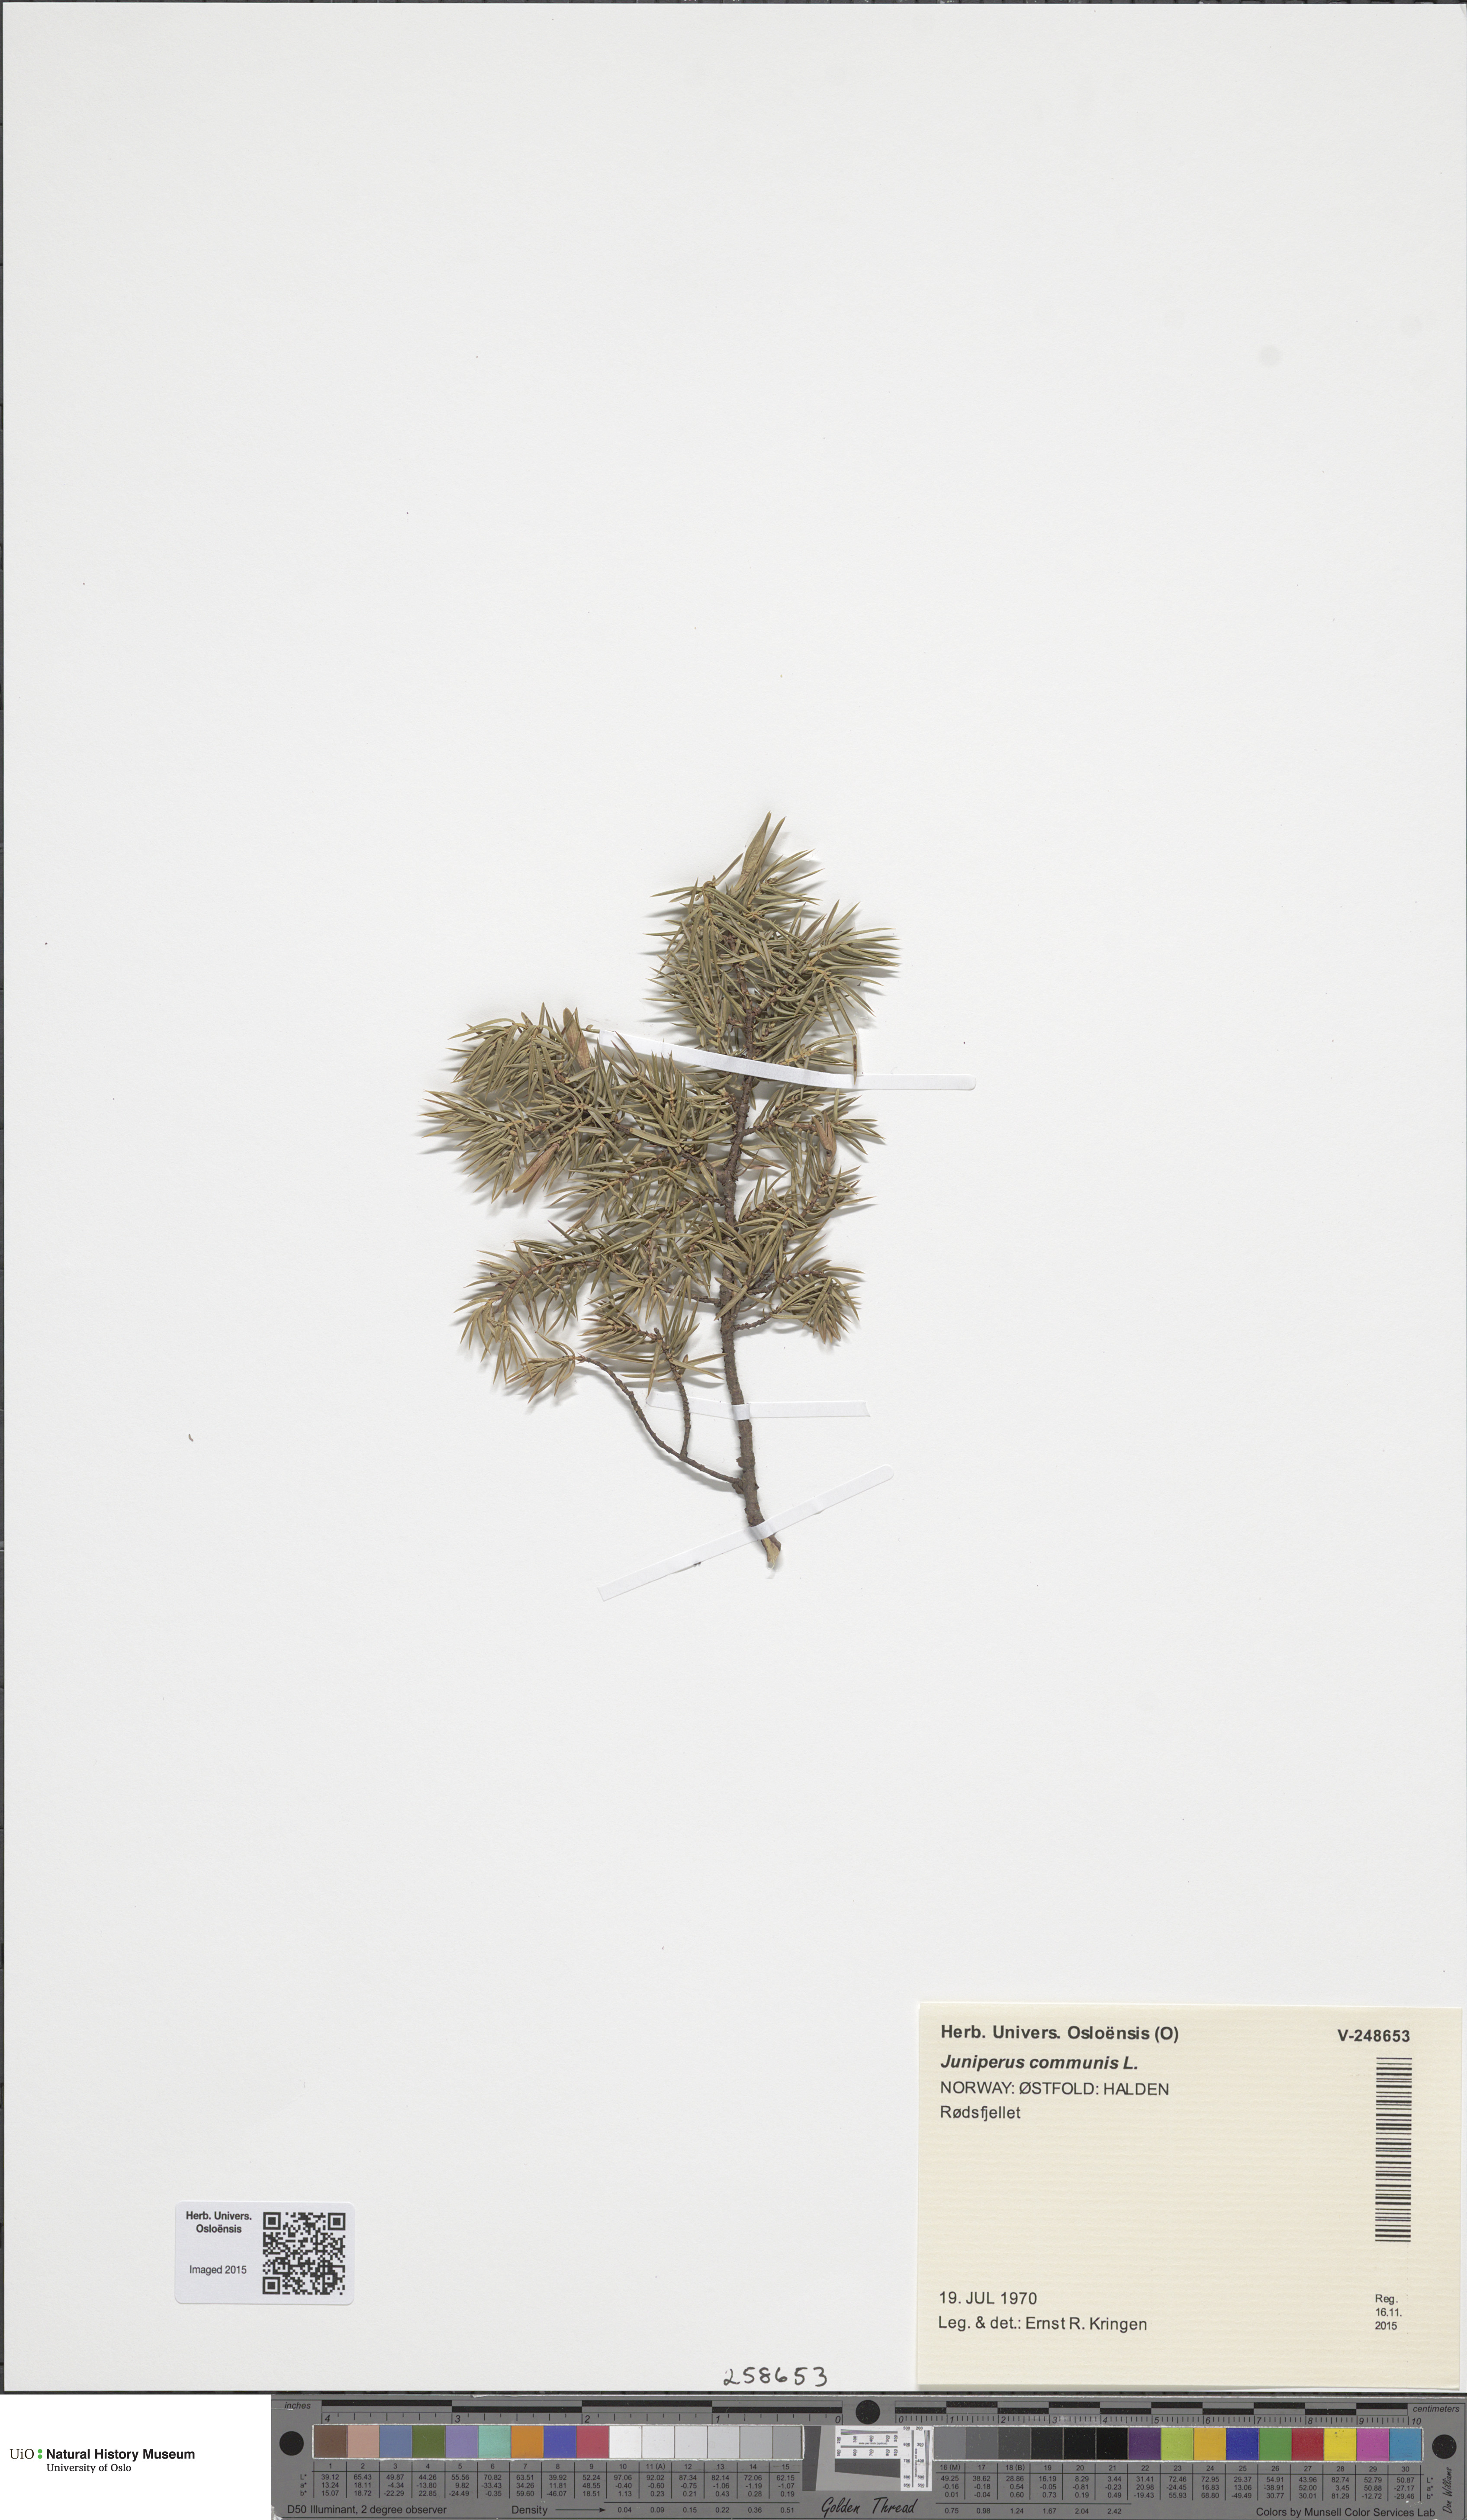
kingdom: Plantae
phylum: Tracheophyta
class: Pinopsida
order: Pinales
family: Cupressaceae
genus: Juniperus
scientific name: Juniperus communis
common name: Common juniper
